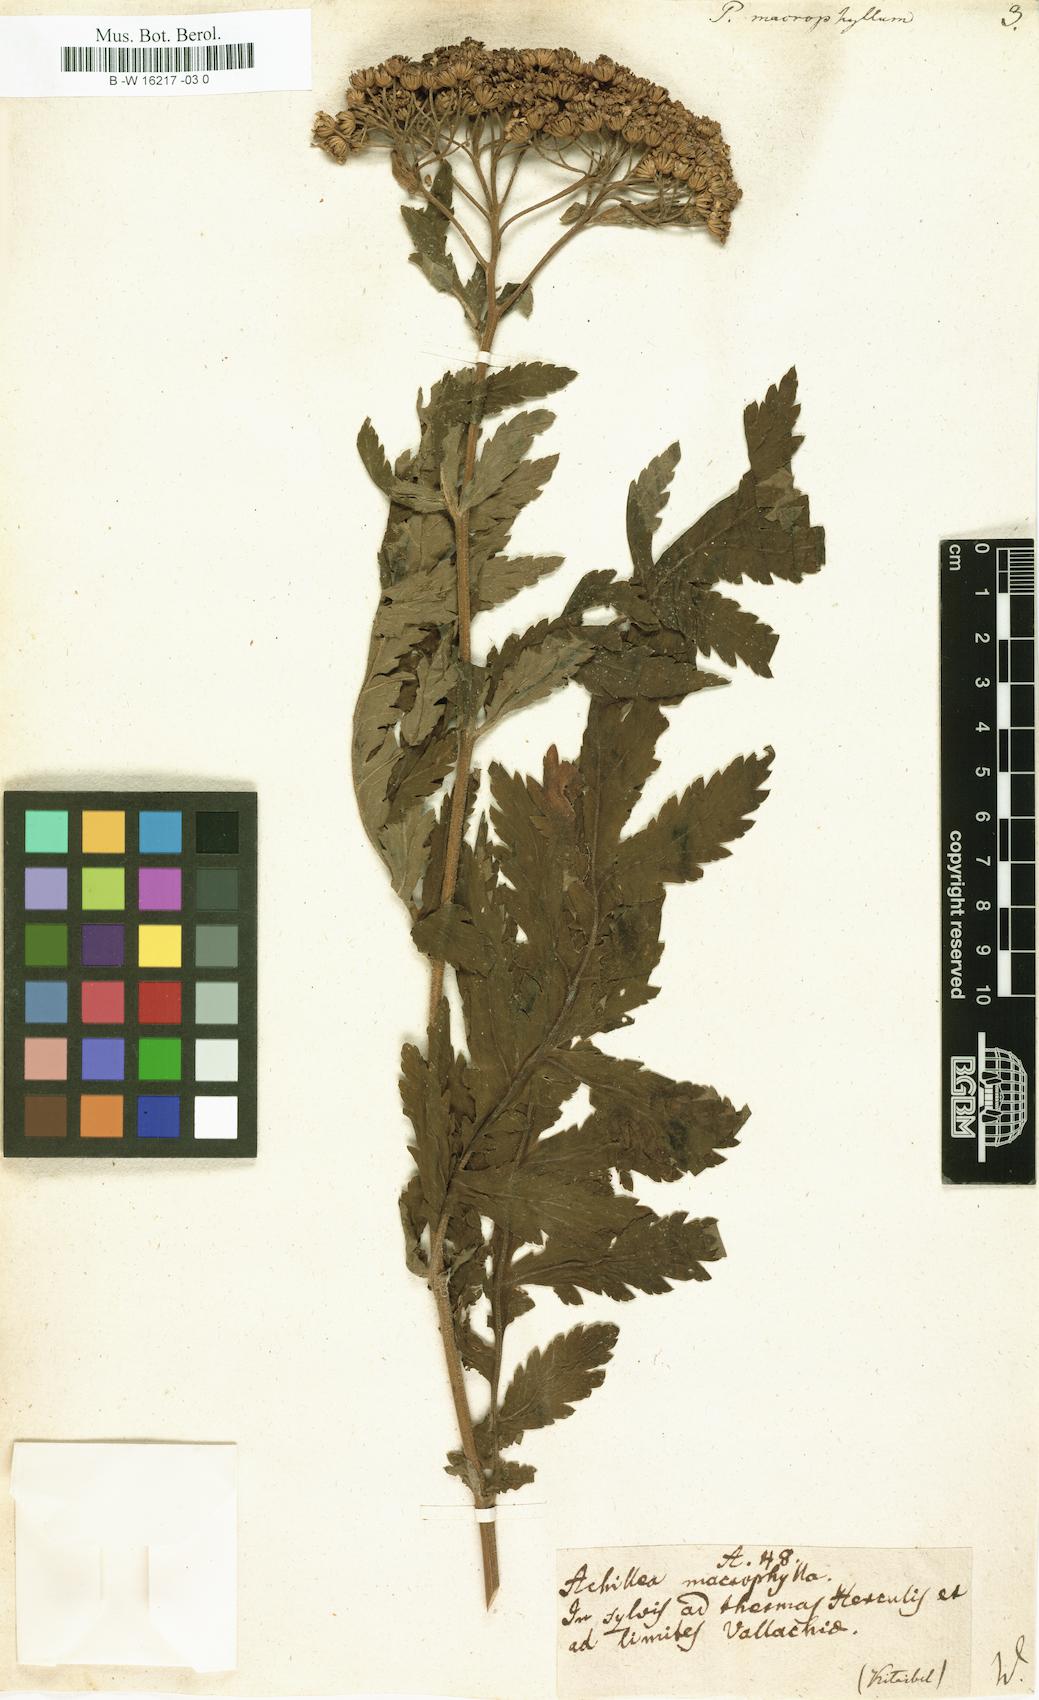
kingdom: Plantae
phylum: Tracheophyta
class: Magnoliopsida
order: Asterales
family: Asteraceae
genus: Tanacetum
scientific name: Tanacetum macrophyllum
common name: Rayed tansy
